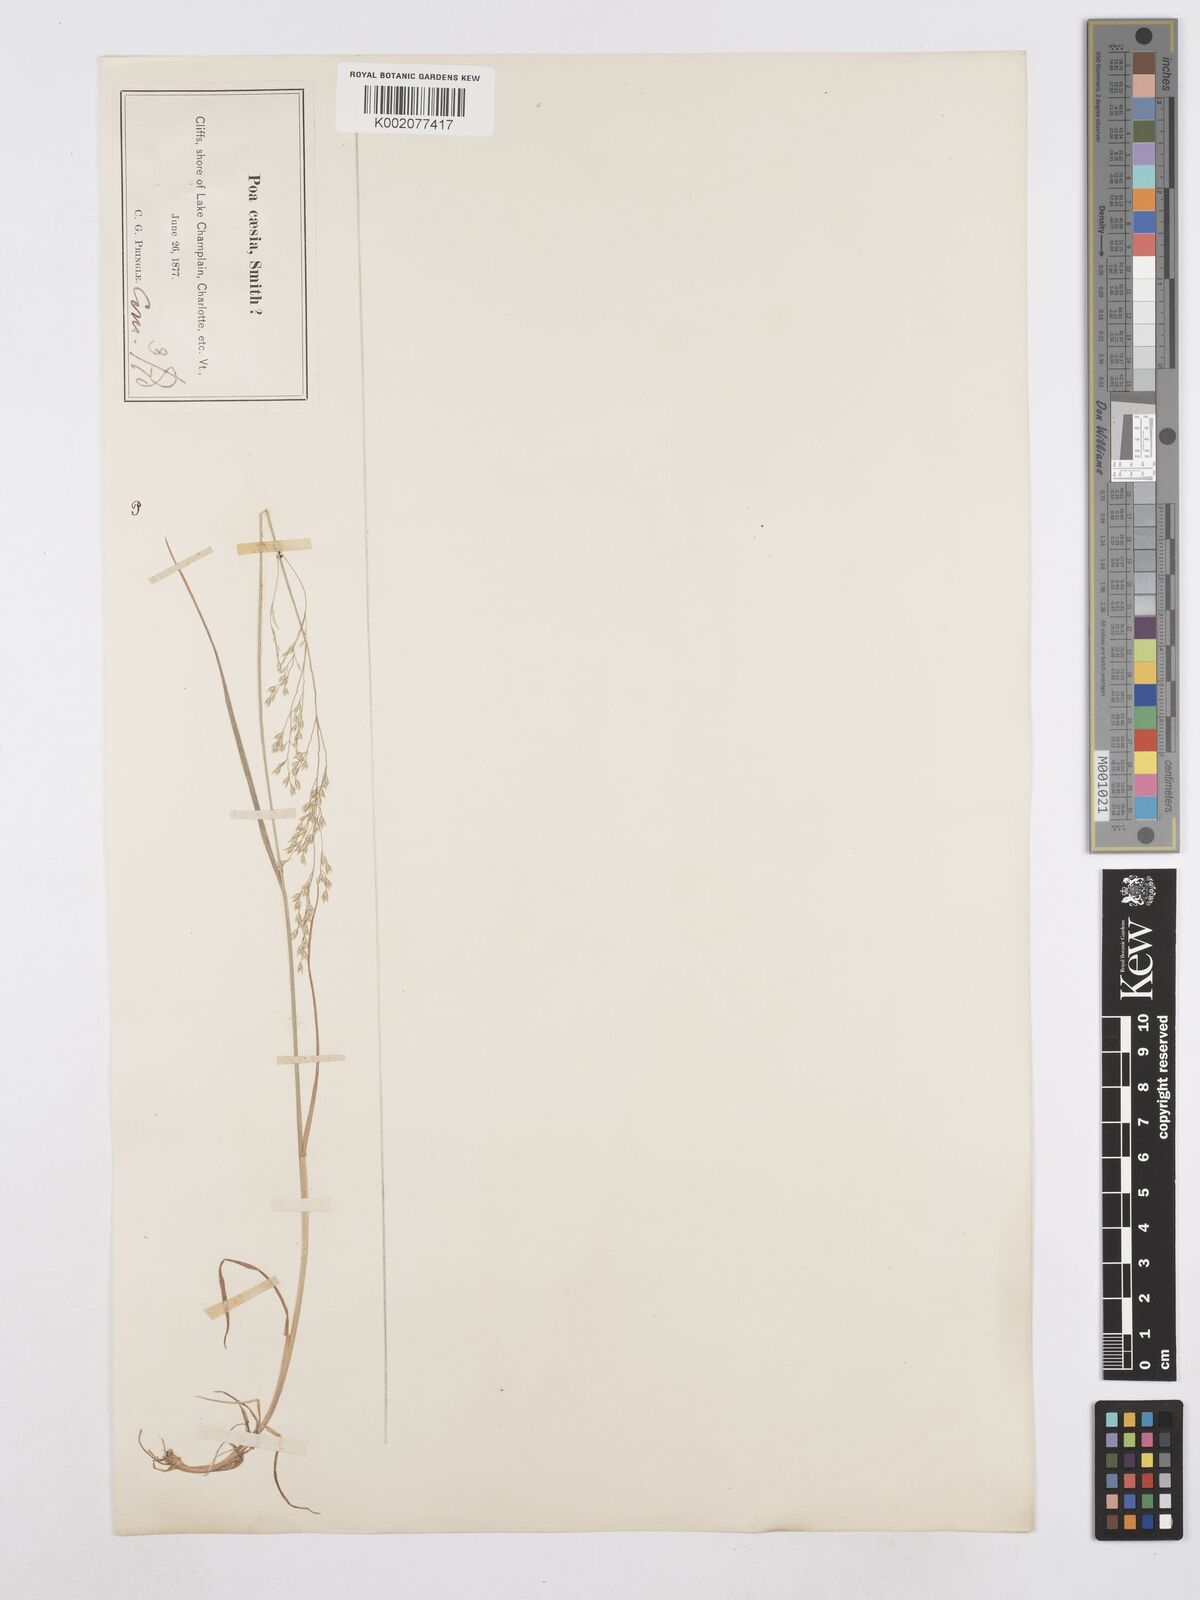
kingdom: Plantae
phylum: Tracheophyta
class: Liliopsida
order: Poales
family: Poaceae
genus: Poa
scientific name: Poa glauca
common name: Glaucous bluegrass
